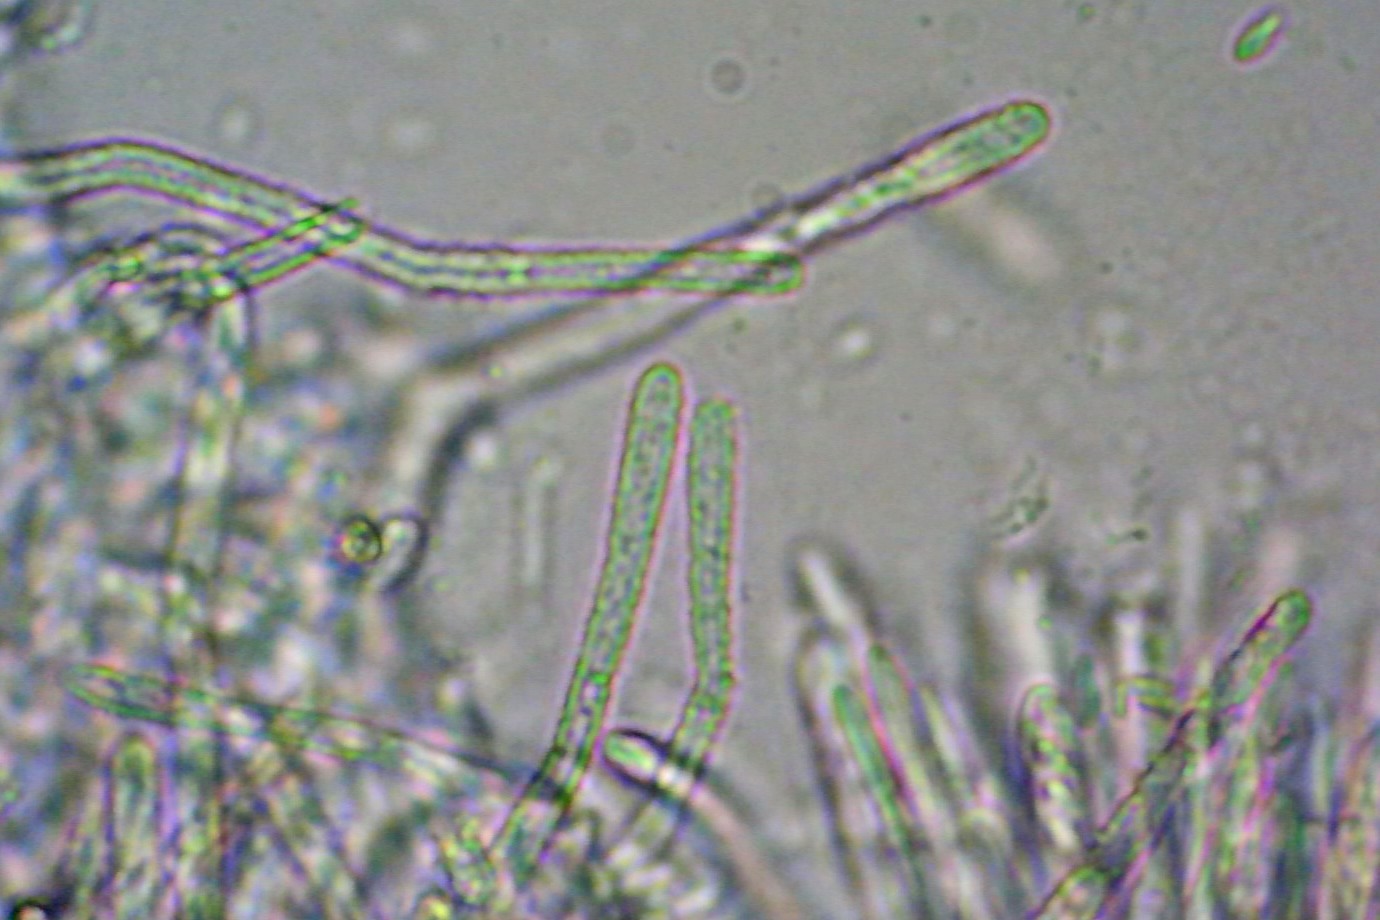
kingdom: Fungi
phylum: Ascomycota
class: Leotiomycetes
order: Helotiales
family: Lachnaceae
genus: Lachnum
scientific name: Lachnum impudicum
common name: vinter-frynseskive
